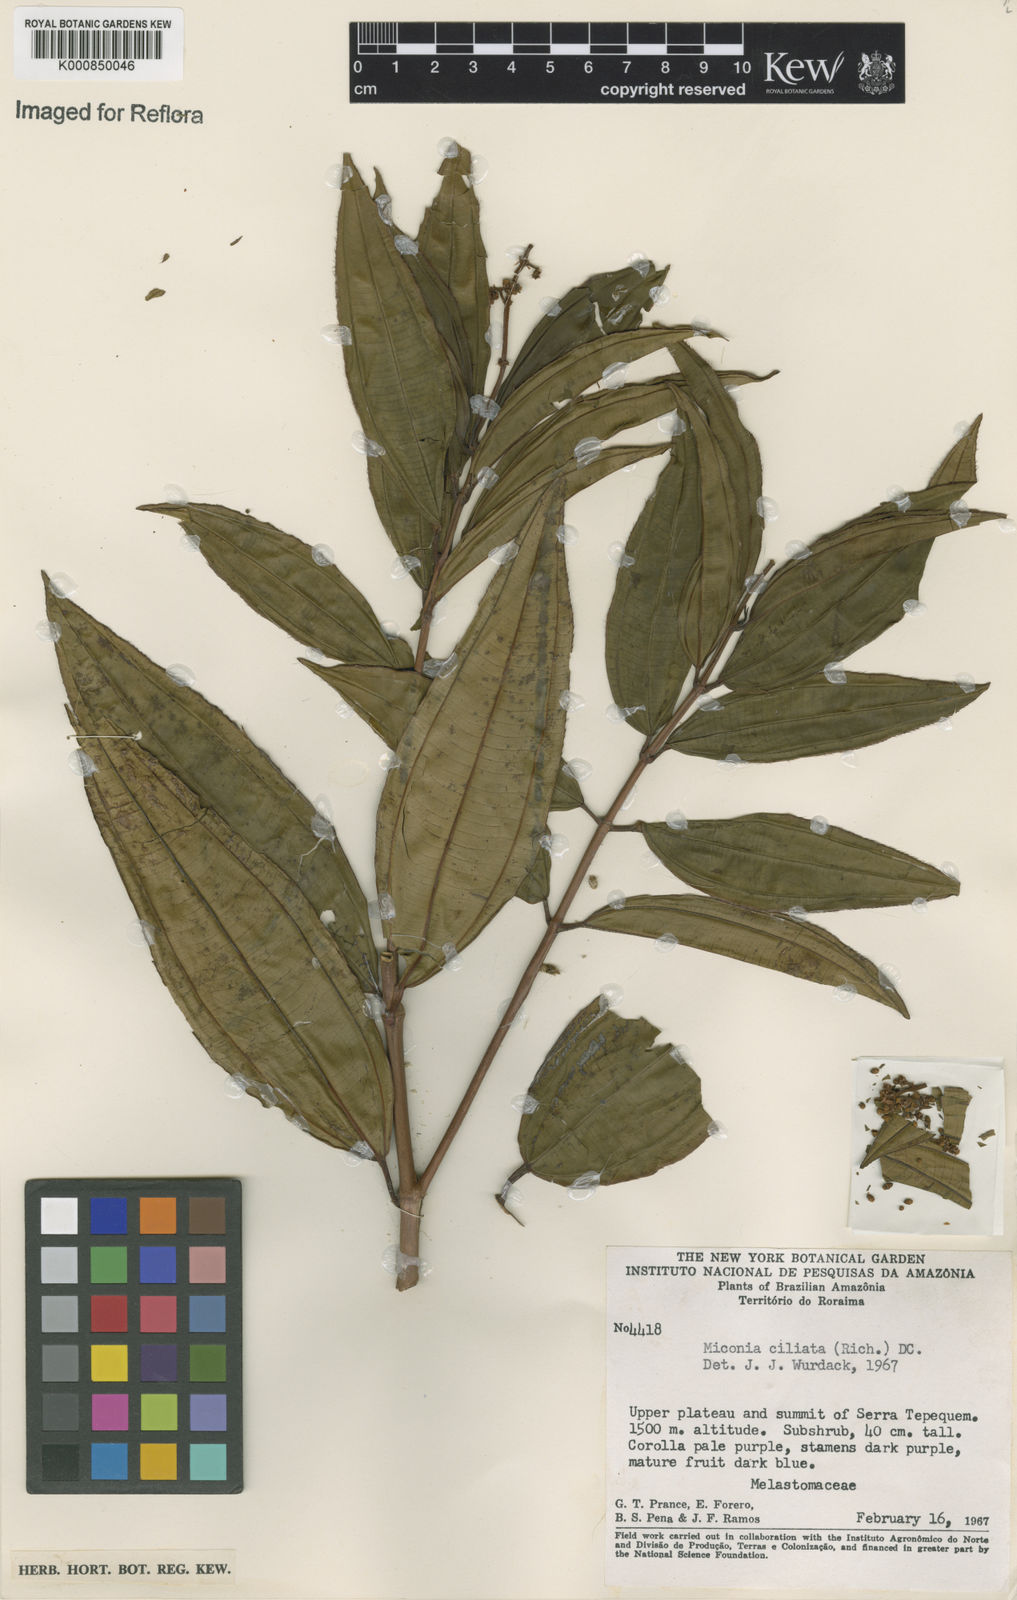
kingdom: Plantae
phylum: Tracheophyta
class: Magnoliopsida
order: Myrtales
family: Melastomataceae
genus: Miconia
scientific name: Miconia ciliata
